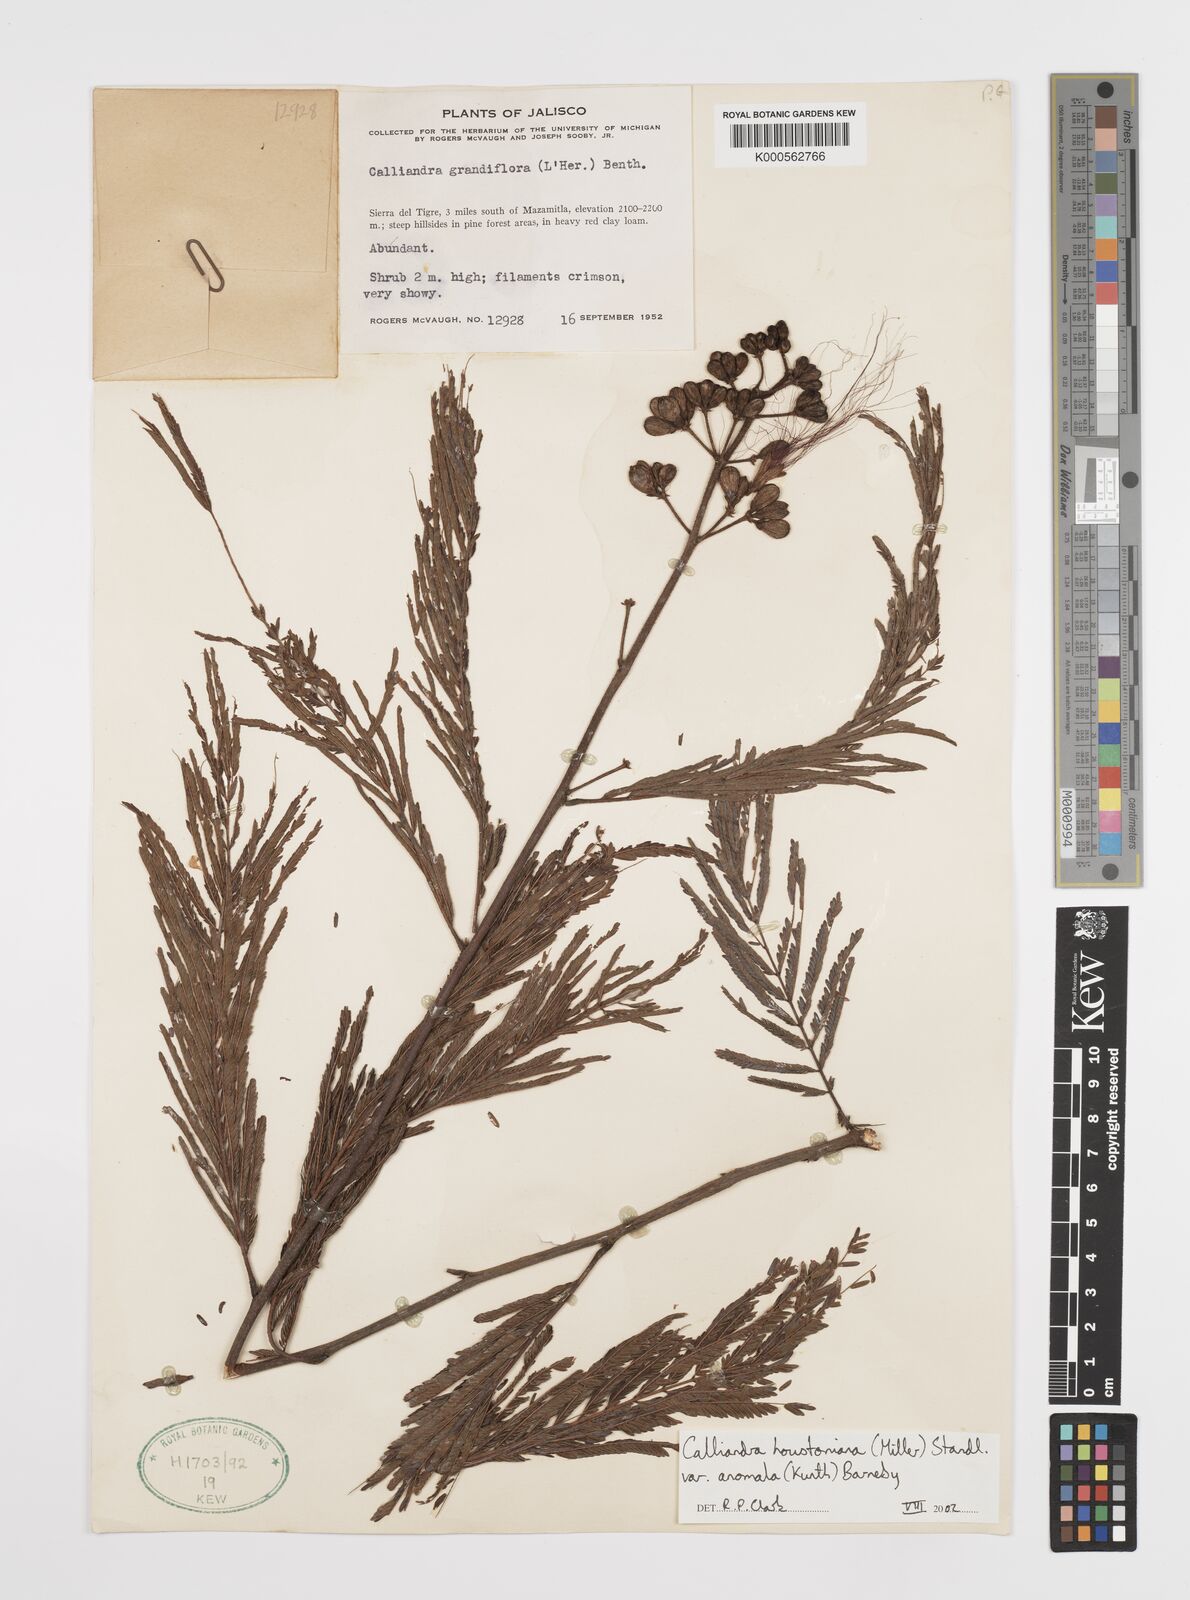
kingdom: Plantae
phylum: Tracheophyta
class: Magnoliopsida
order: Fabales
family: Fabaceae
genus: Calliandra
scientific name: Calliandra houstoniana
